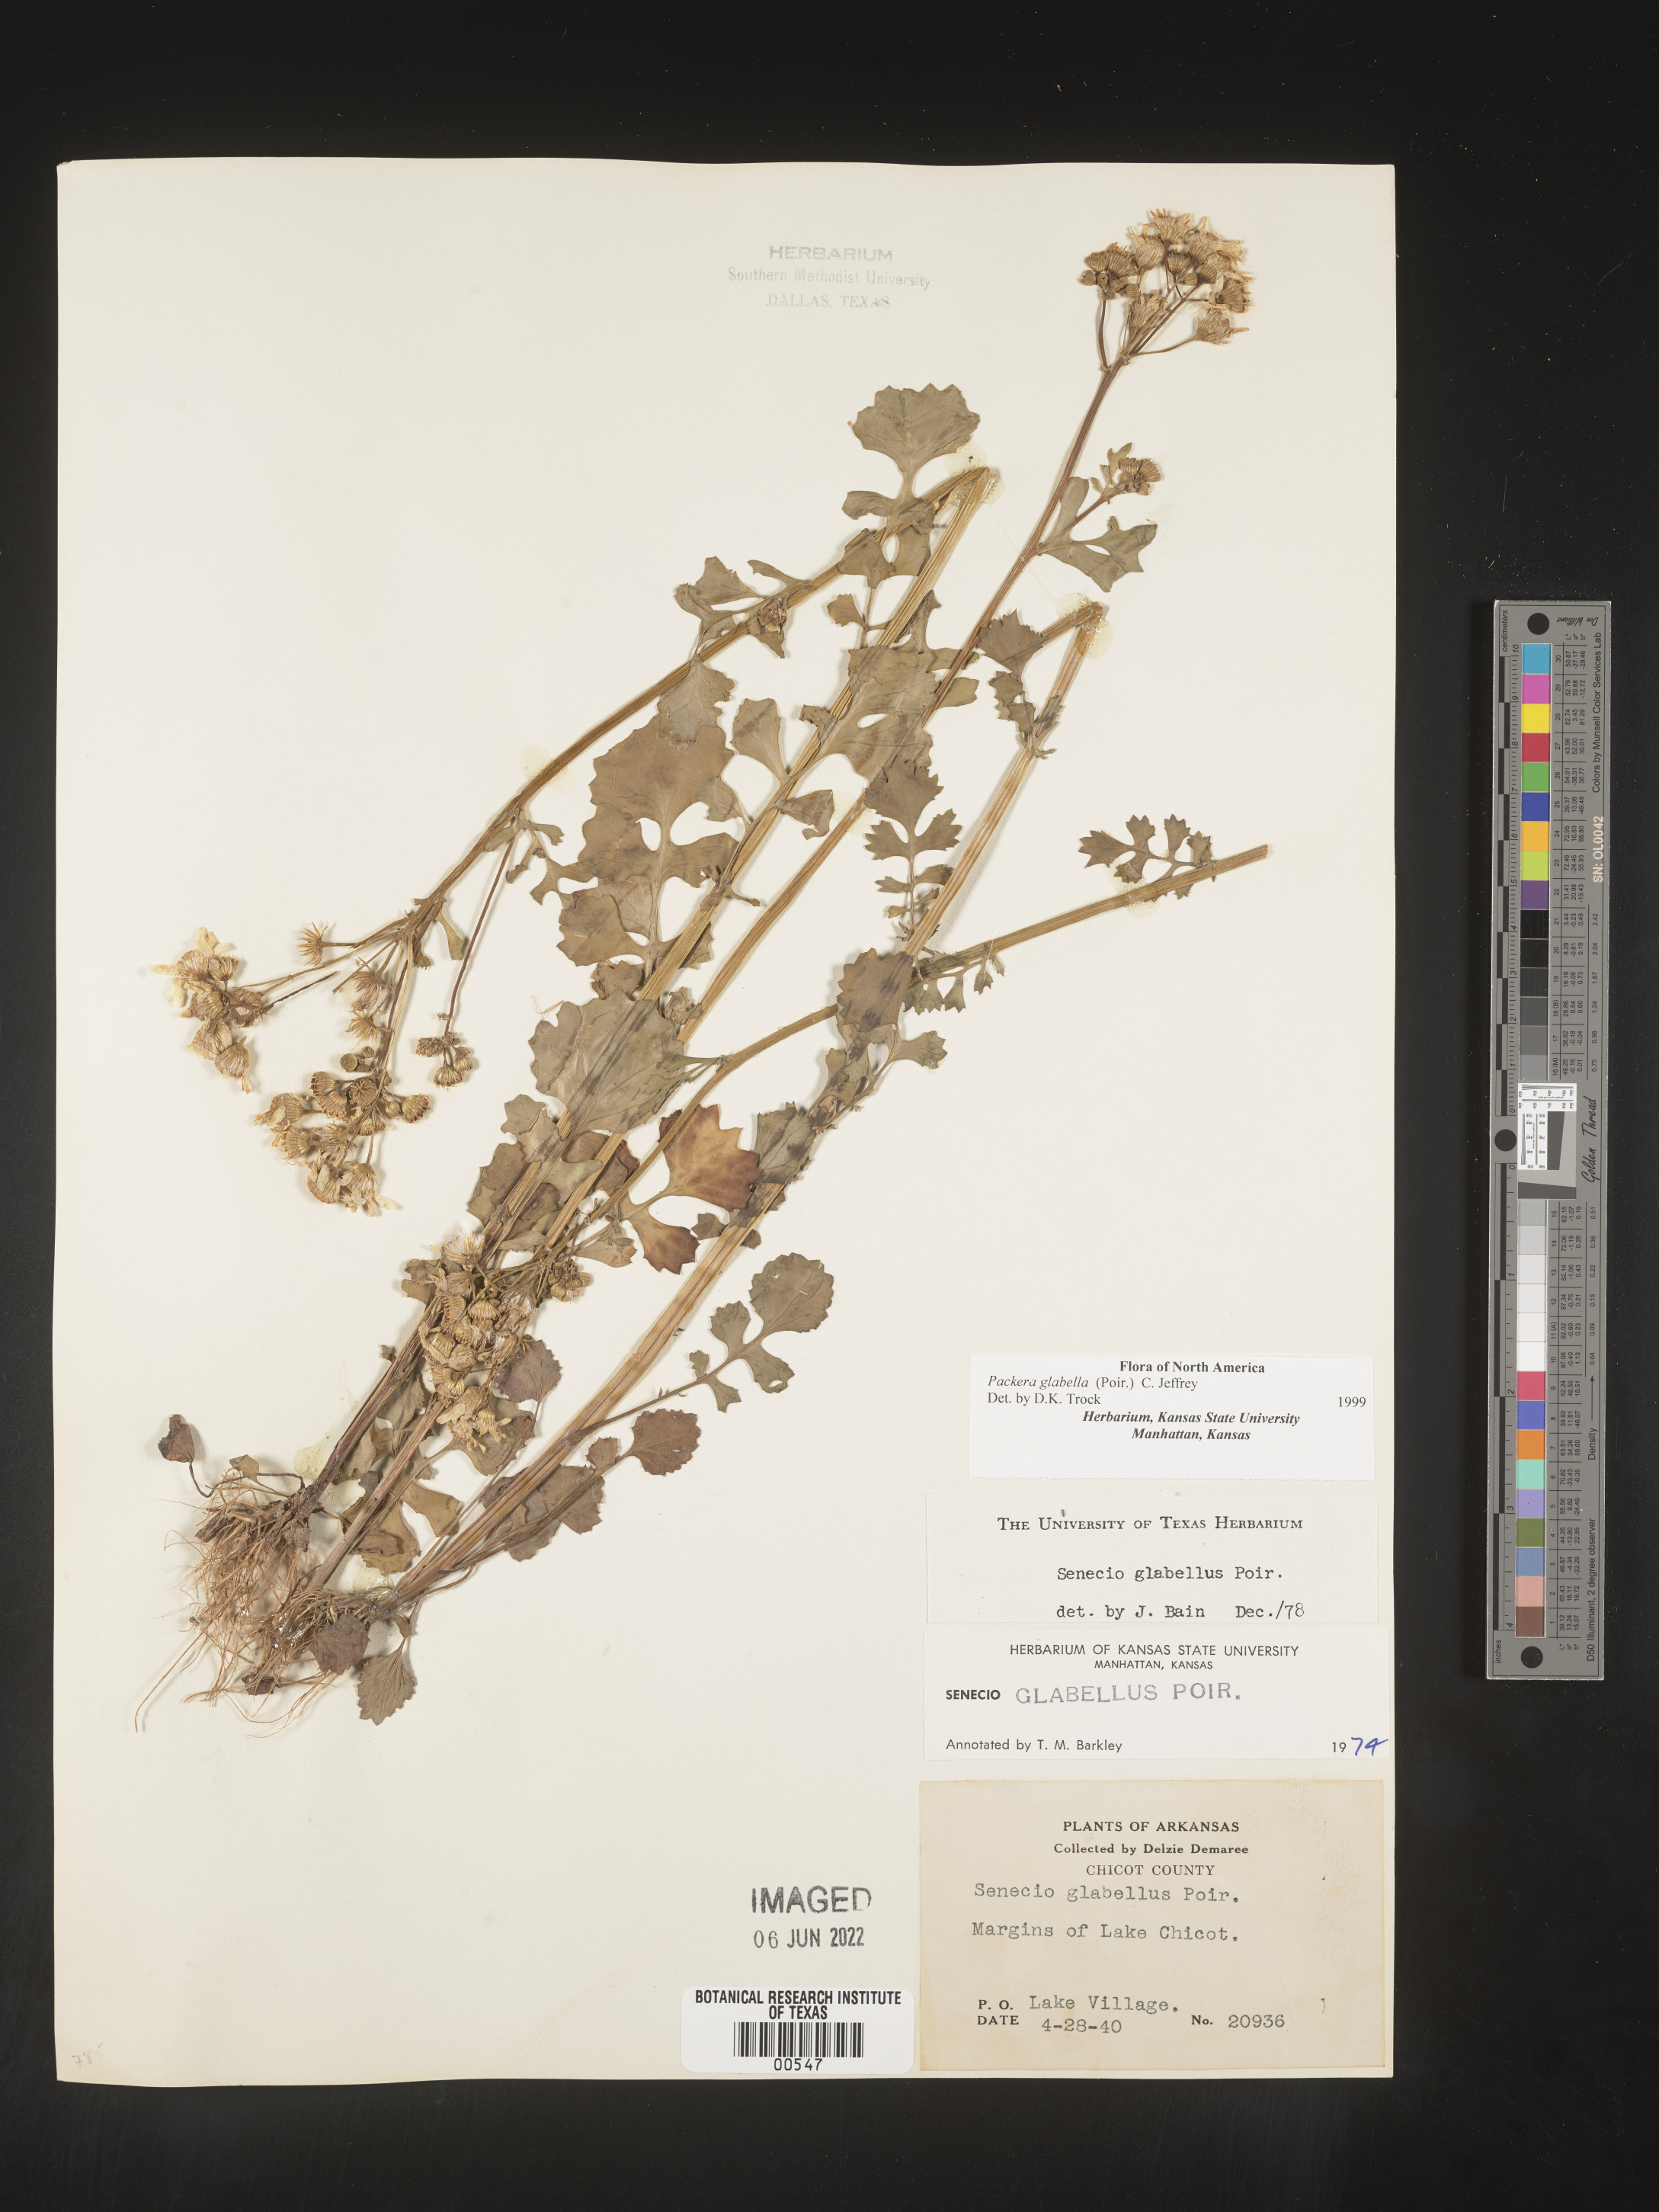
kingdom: Plantae
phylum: Tracheophyta
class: Magnoliopsida
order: Asterales
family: Asteraceae
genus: Packera
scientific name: Packera glabella
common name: Butterweed
